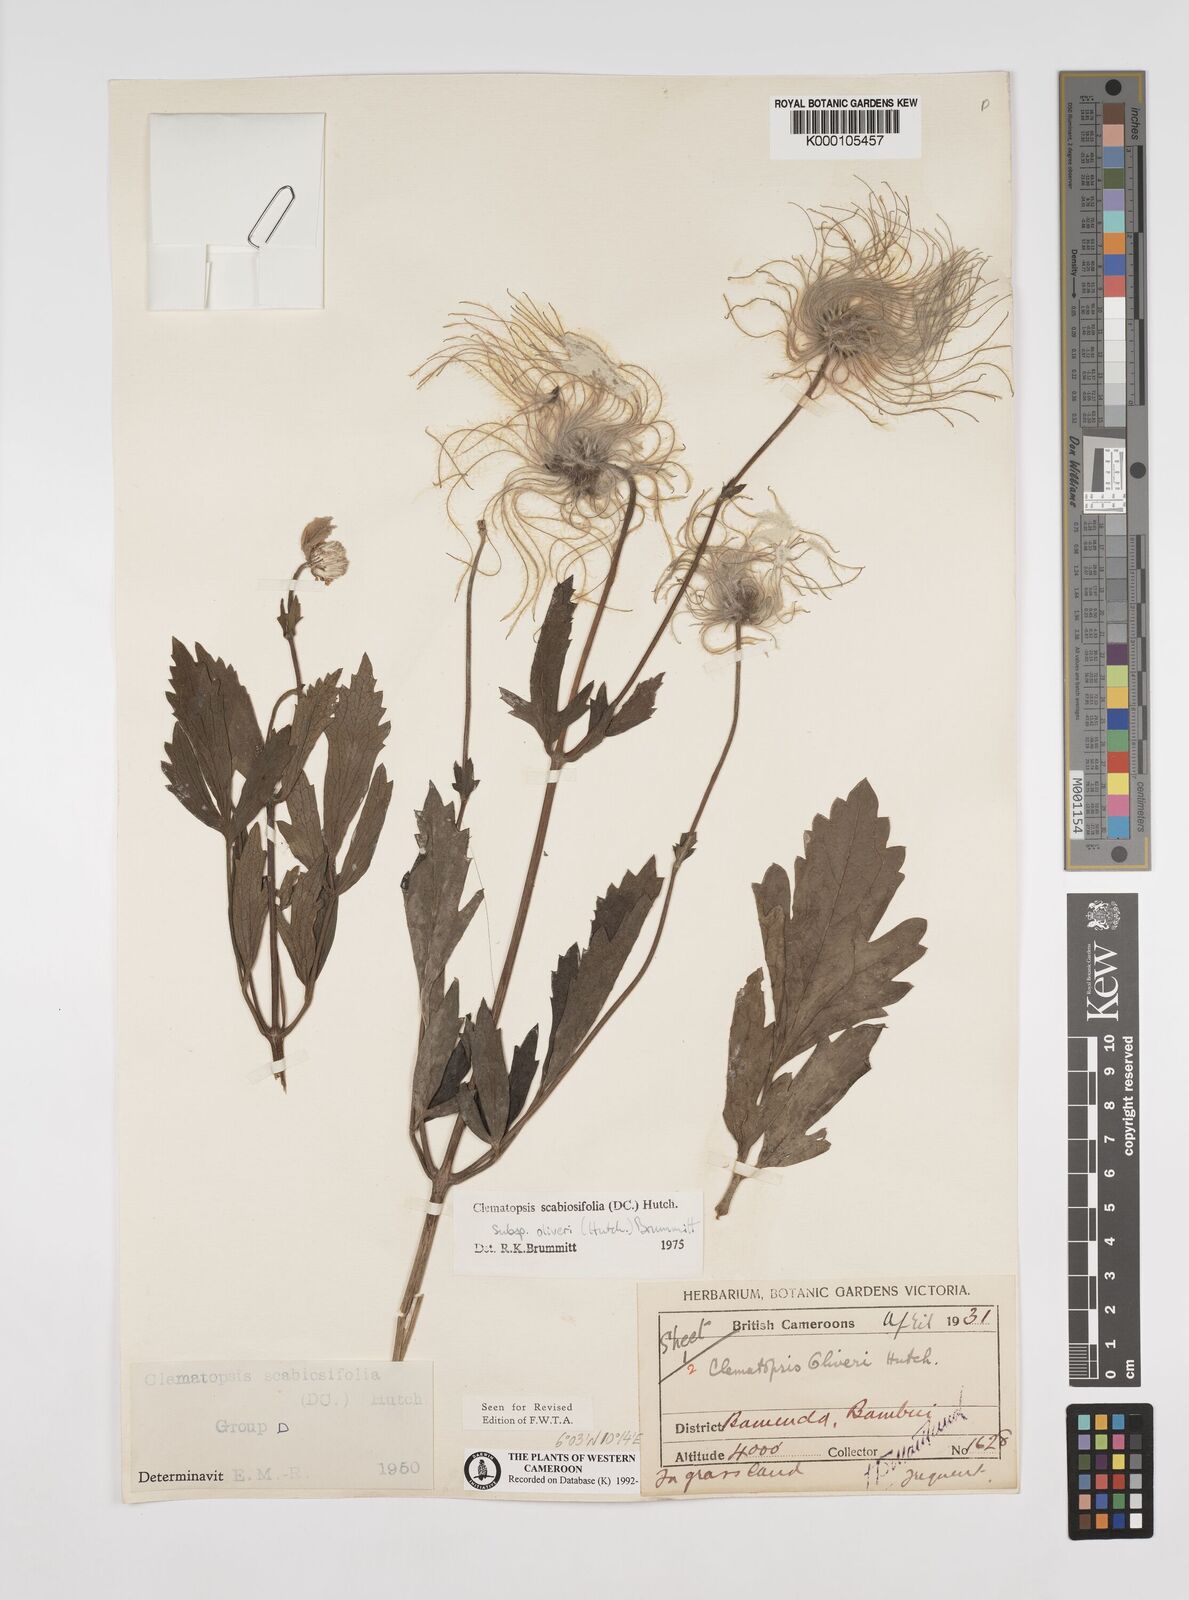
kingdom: Plantae
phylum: Tracheophyta
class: Magnoliopsida
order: Ranunculales
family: Ranunculaceae
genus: Clematis
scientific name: Clematis villosa
